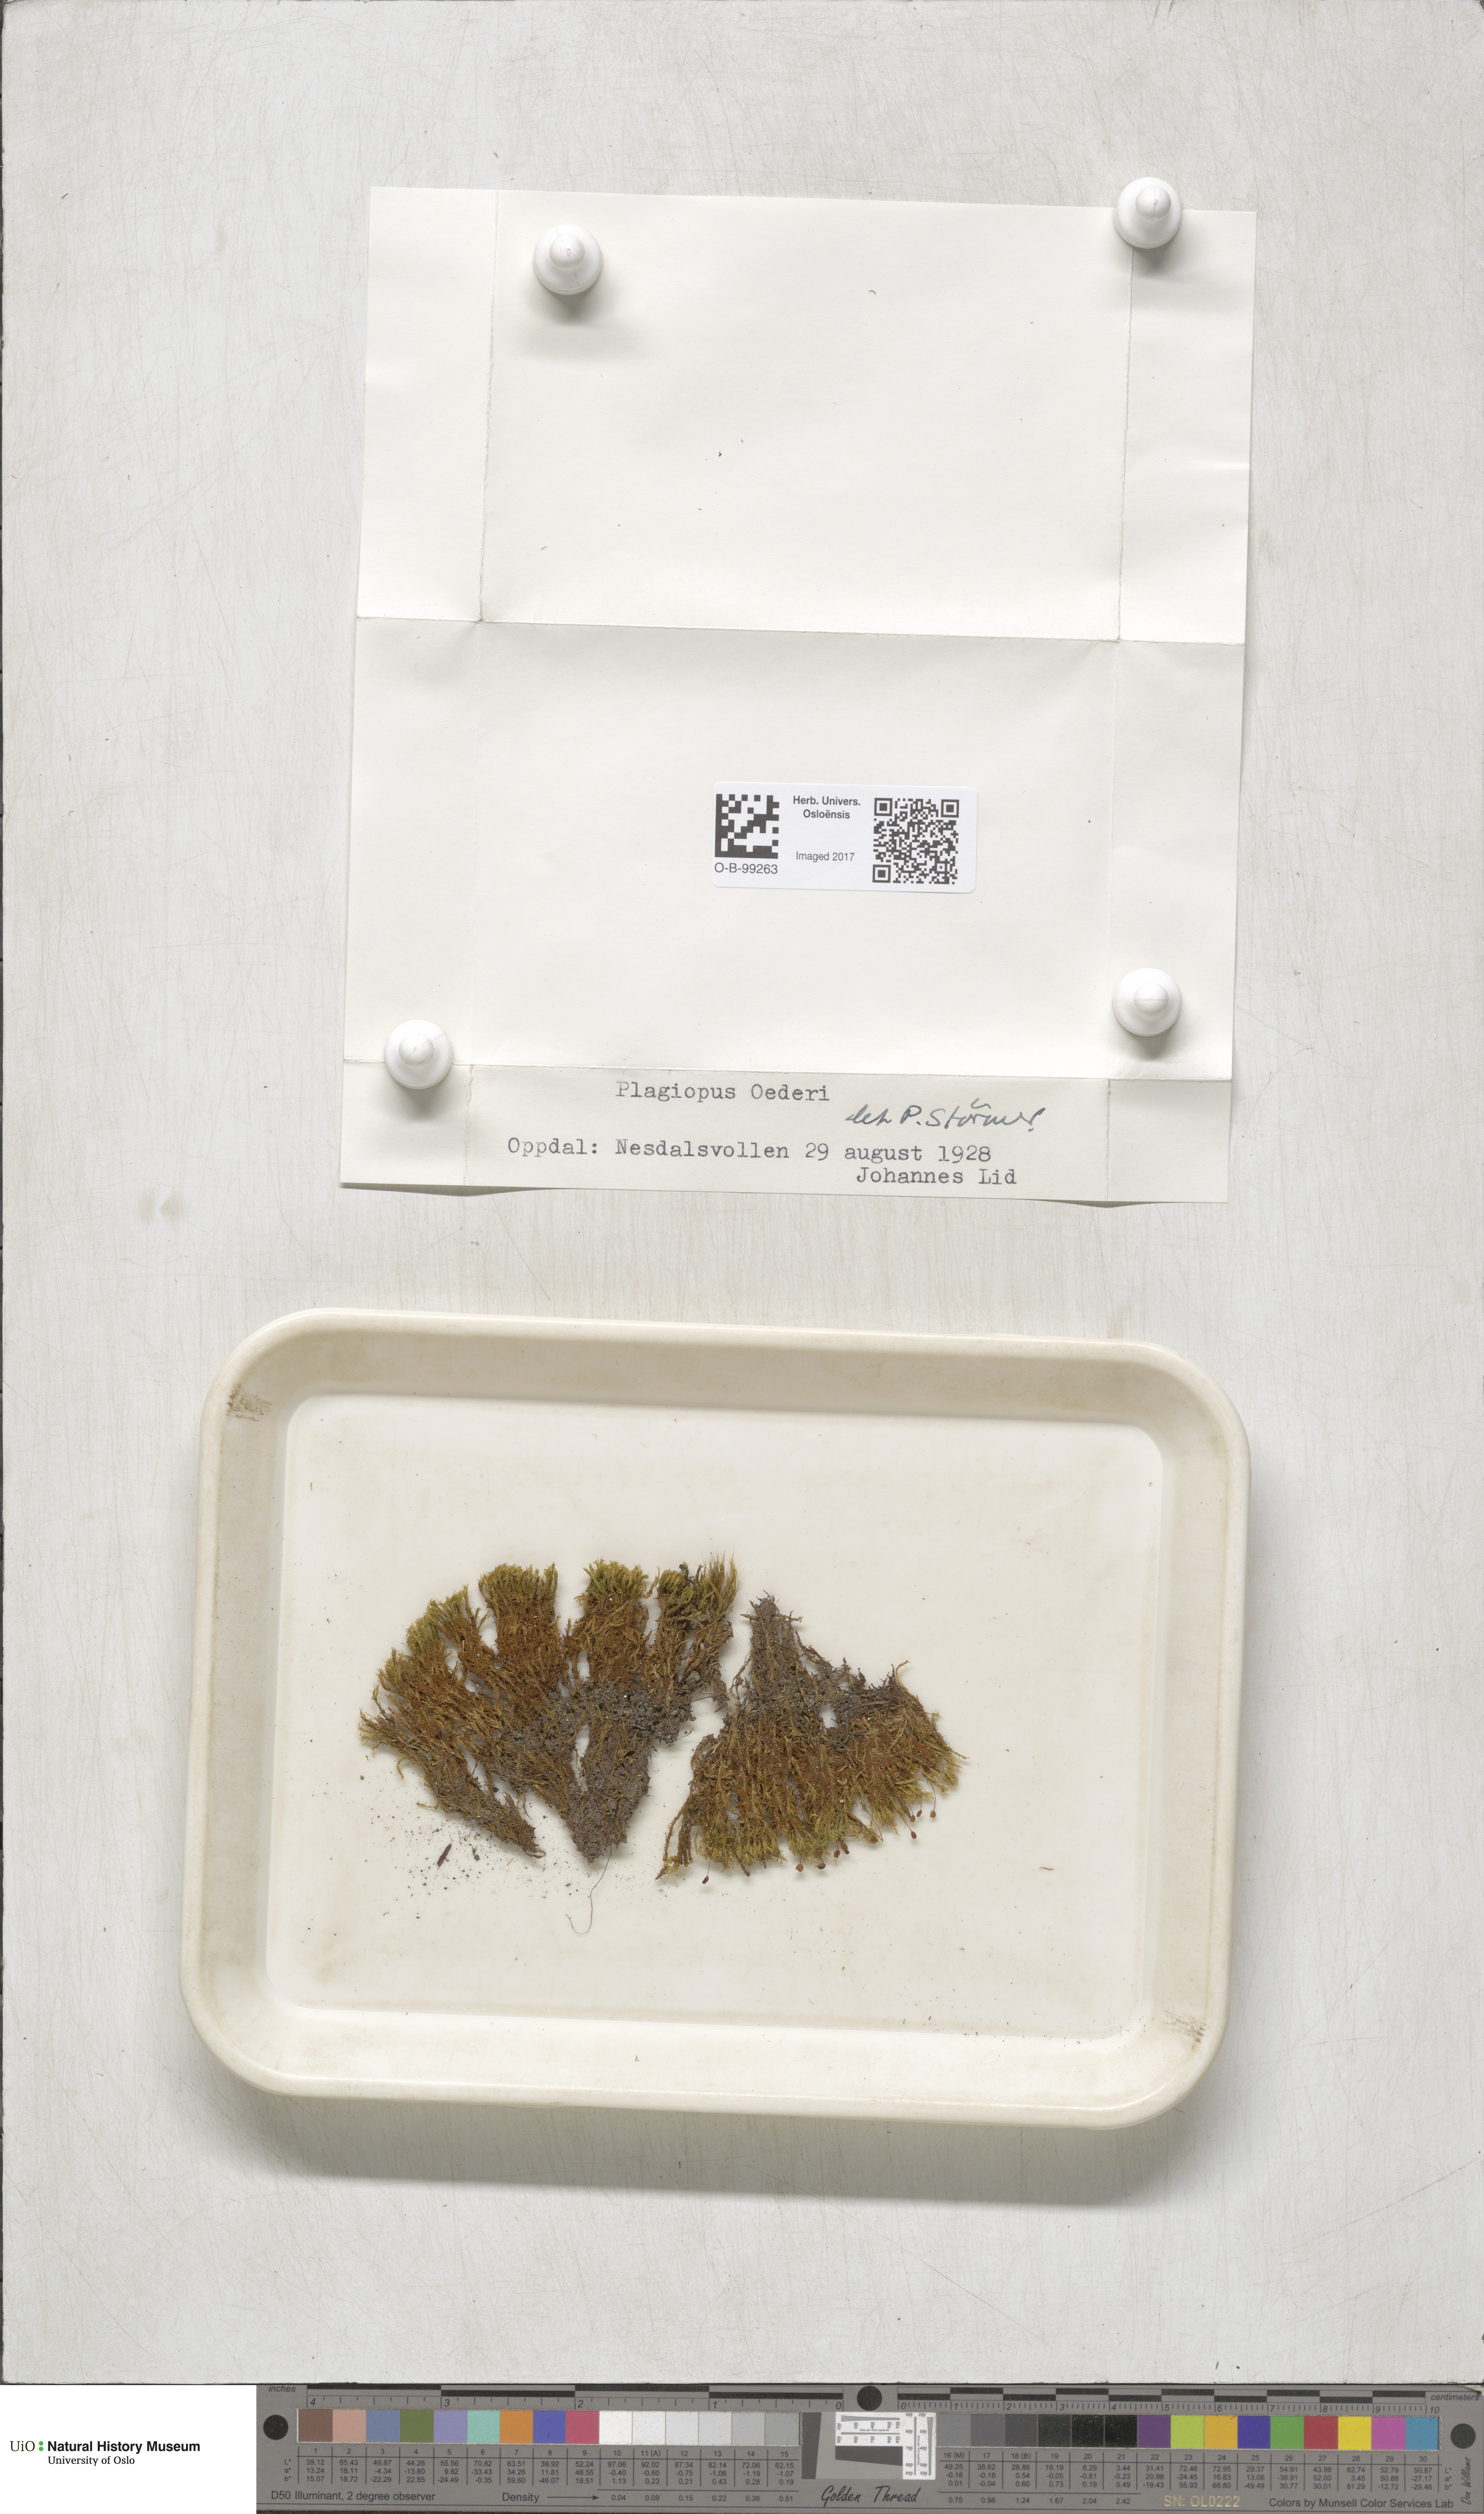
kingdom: Plantae
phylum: Bryophyta
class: Bryopsida
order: Bartramiales
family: Bartramiaceae
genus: Plagiopus
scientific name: Plagiopus oederianus
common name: Oeder's apple moss
